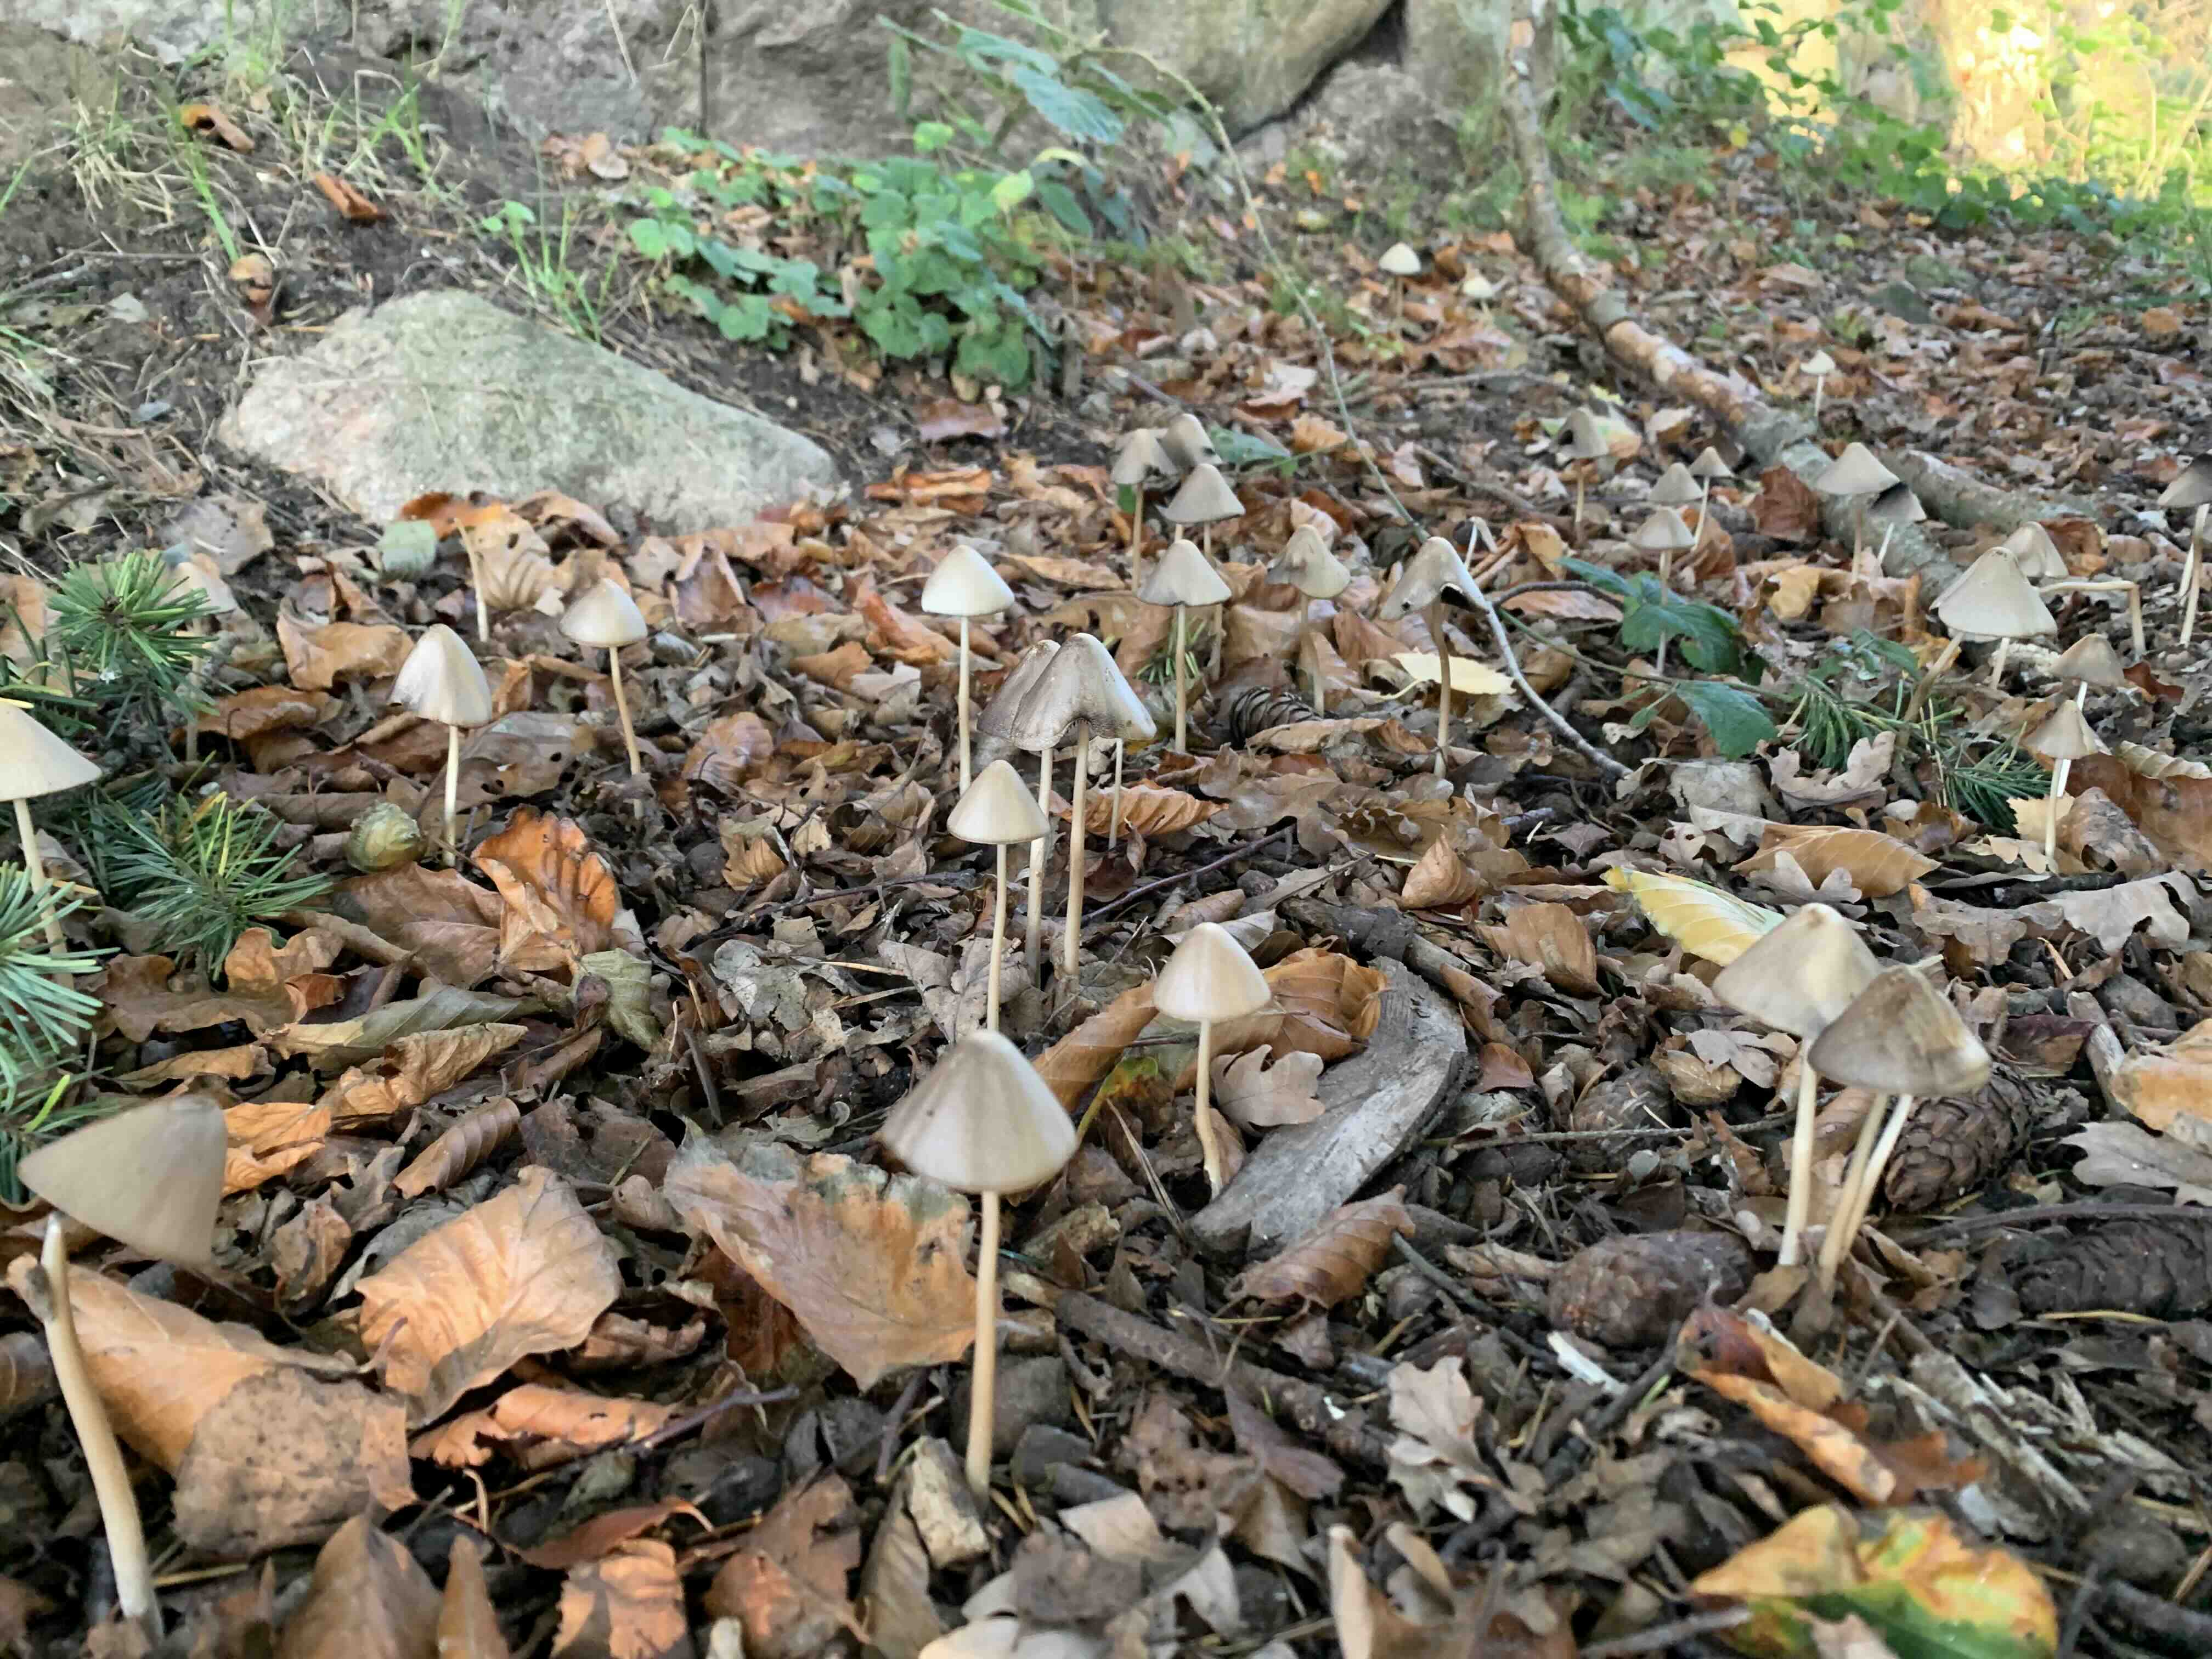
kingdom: Fungi
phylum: Basidiomycota
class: Agaricomycetes
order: Agaricales
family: Psathyrellaceae
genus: Parasola
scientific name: Parasola conopilea
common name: kegle-hjulhat
